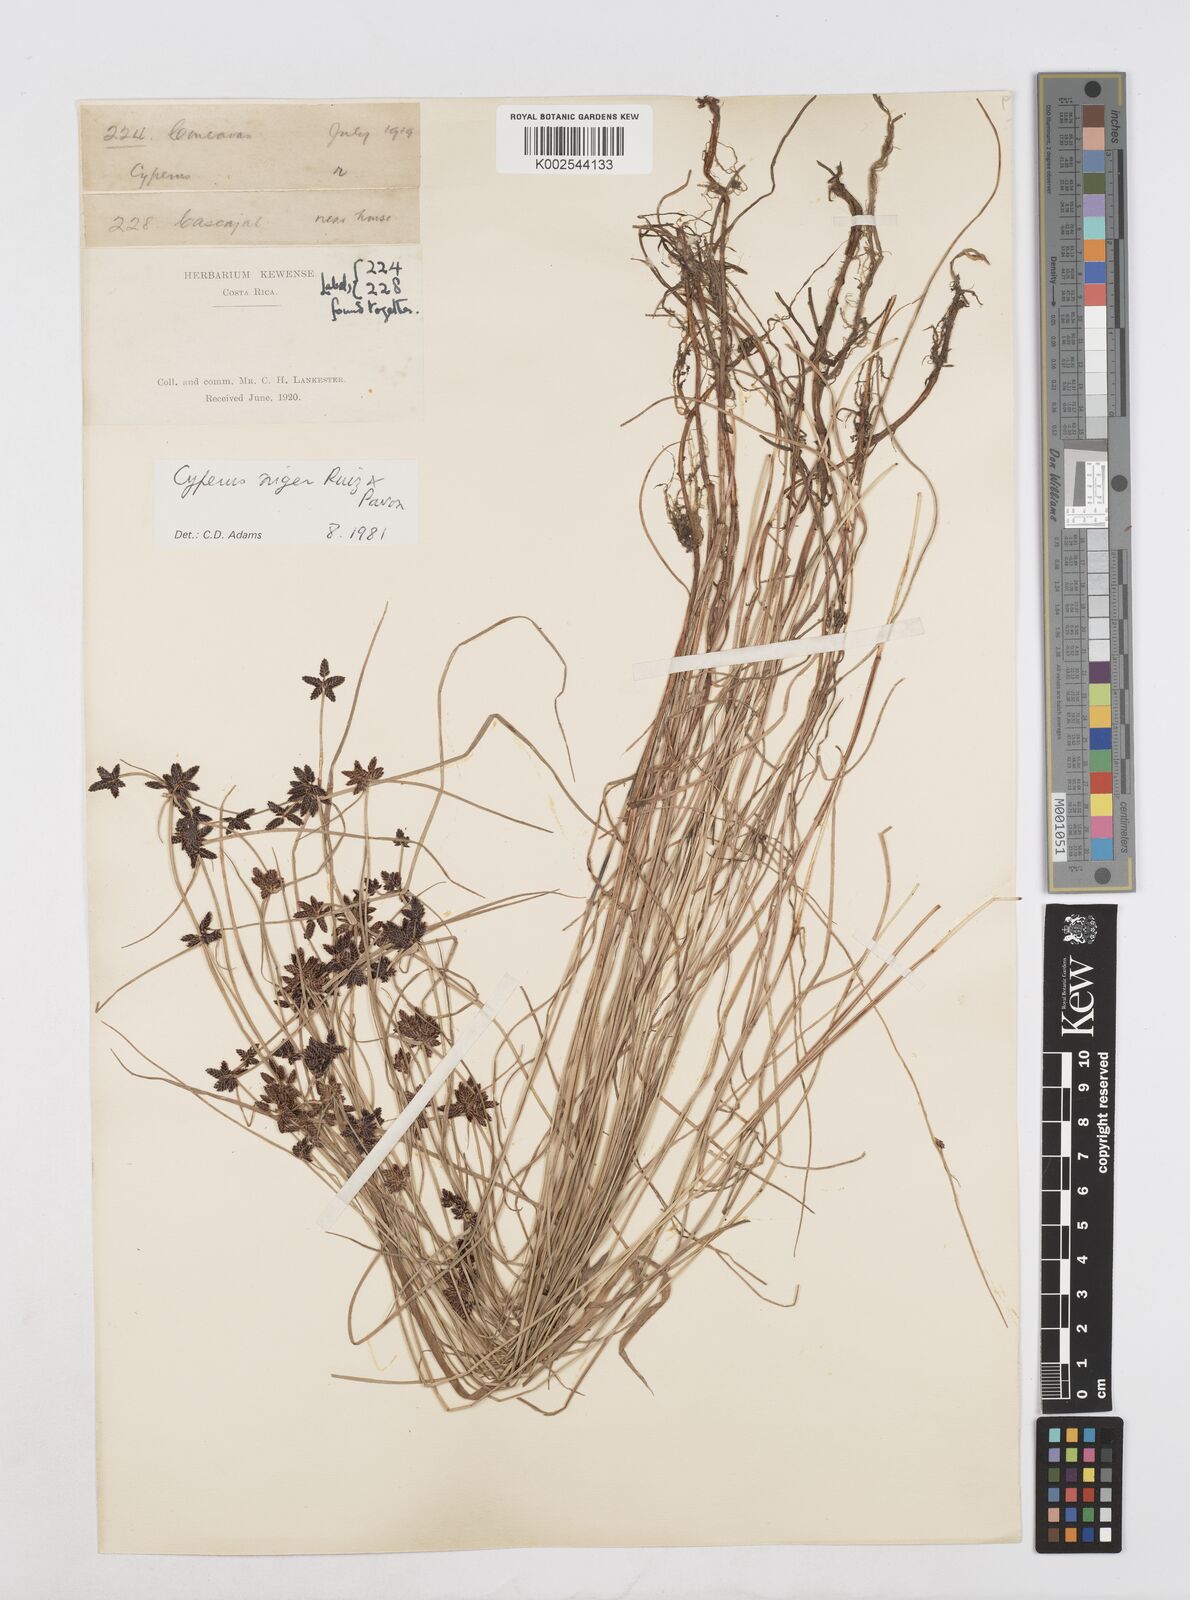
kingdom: Plantae
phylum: Tracheophyta
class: Liliopsida
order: Poales
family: Cyperaceae
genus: Cyperus
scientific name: Cyperus melanostachyus
